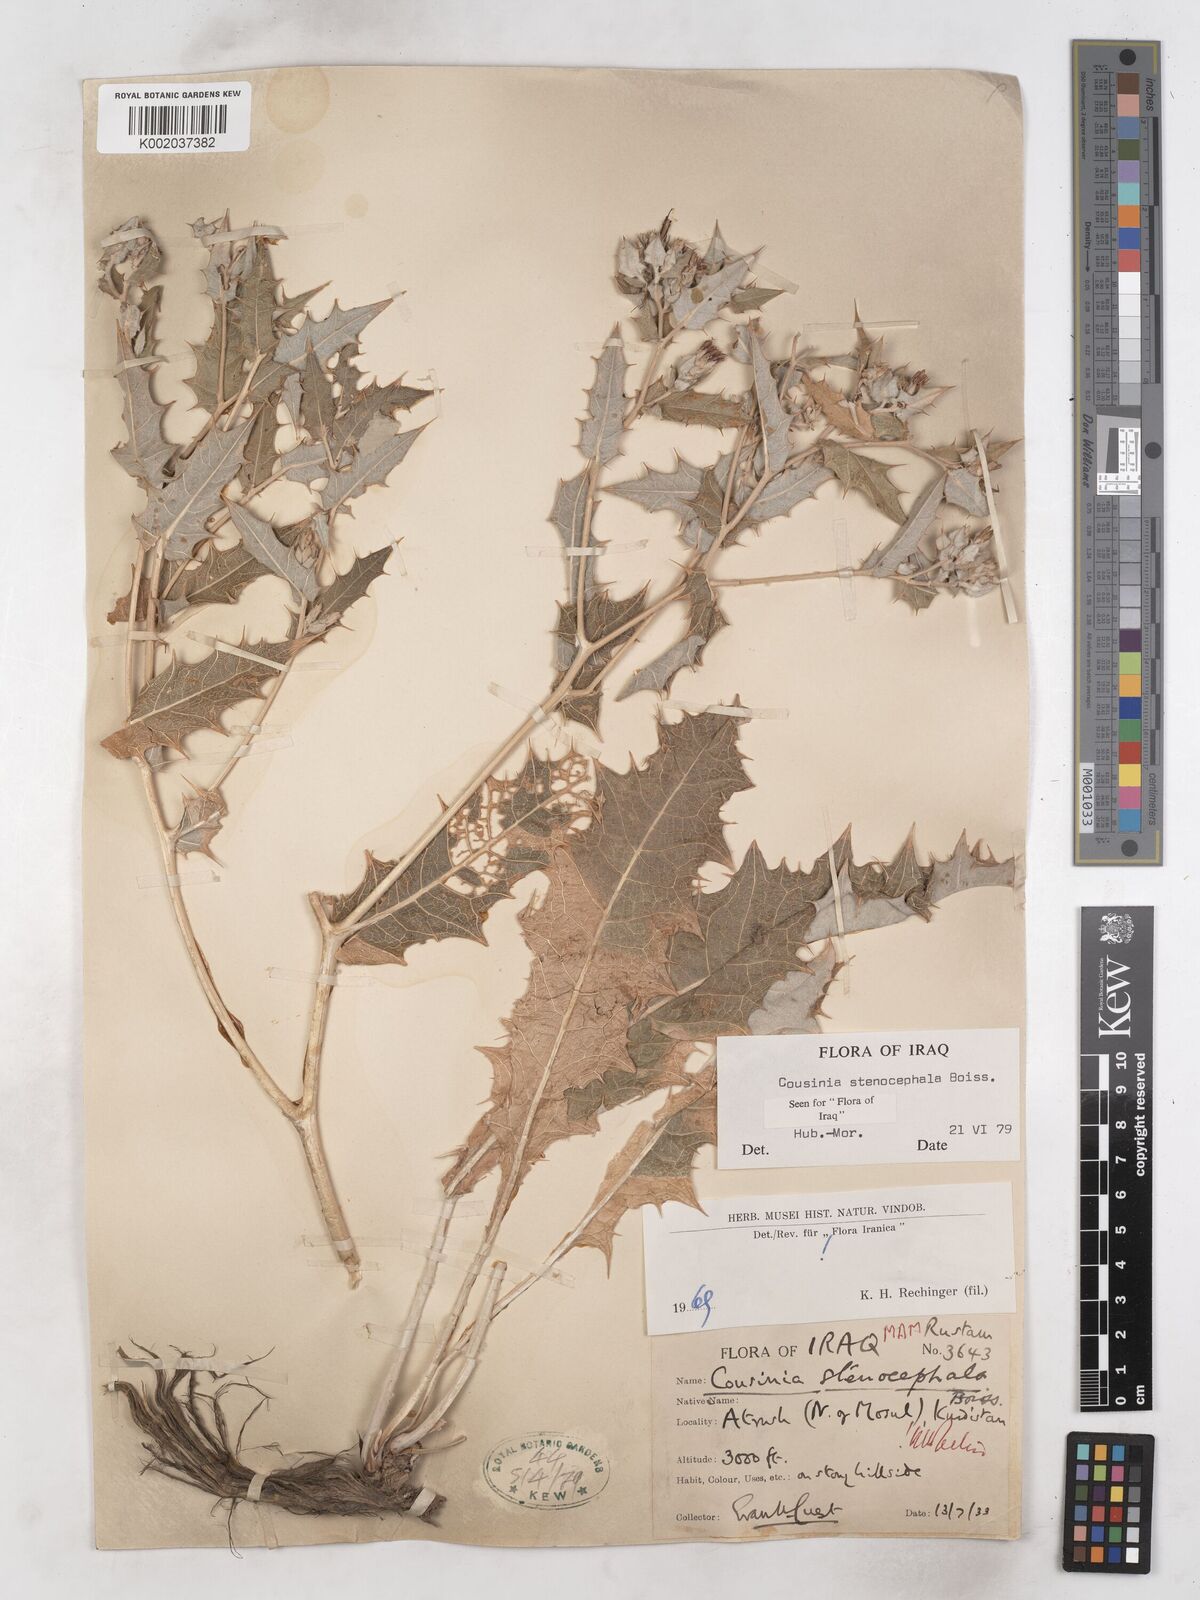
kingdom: Plantae
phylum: Tracheophyta
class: Magnoliopsida
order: Asterales
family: Asteraceae
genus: Cousinia
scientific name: Cousinia stenocephala
